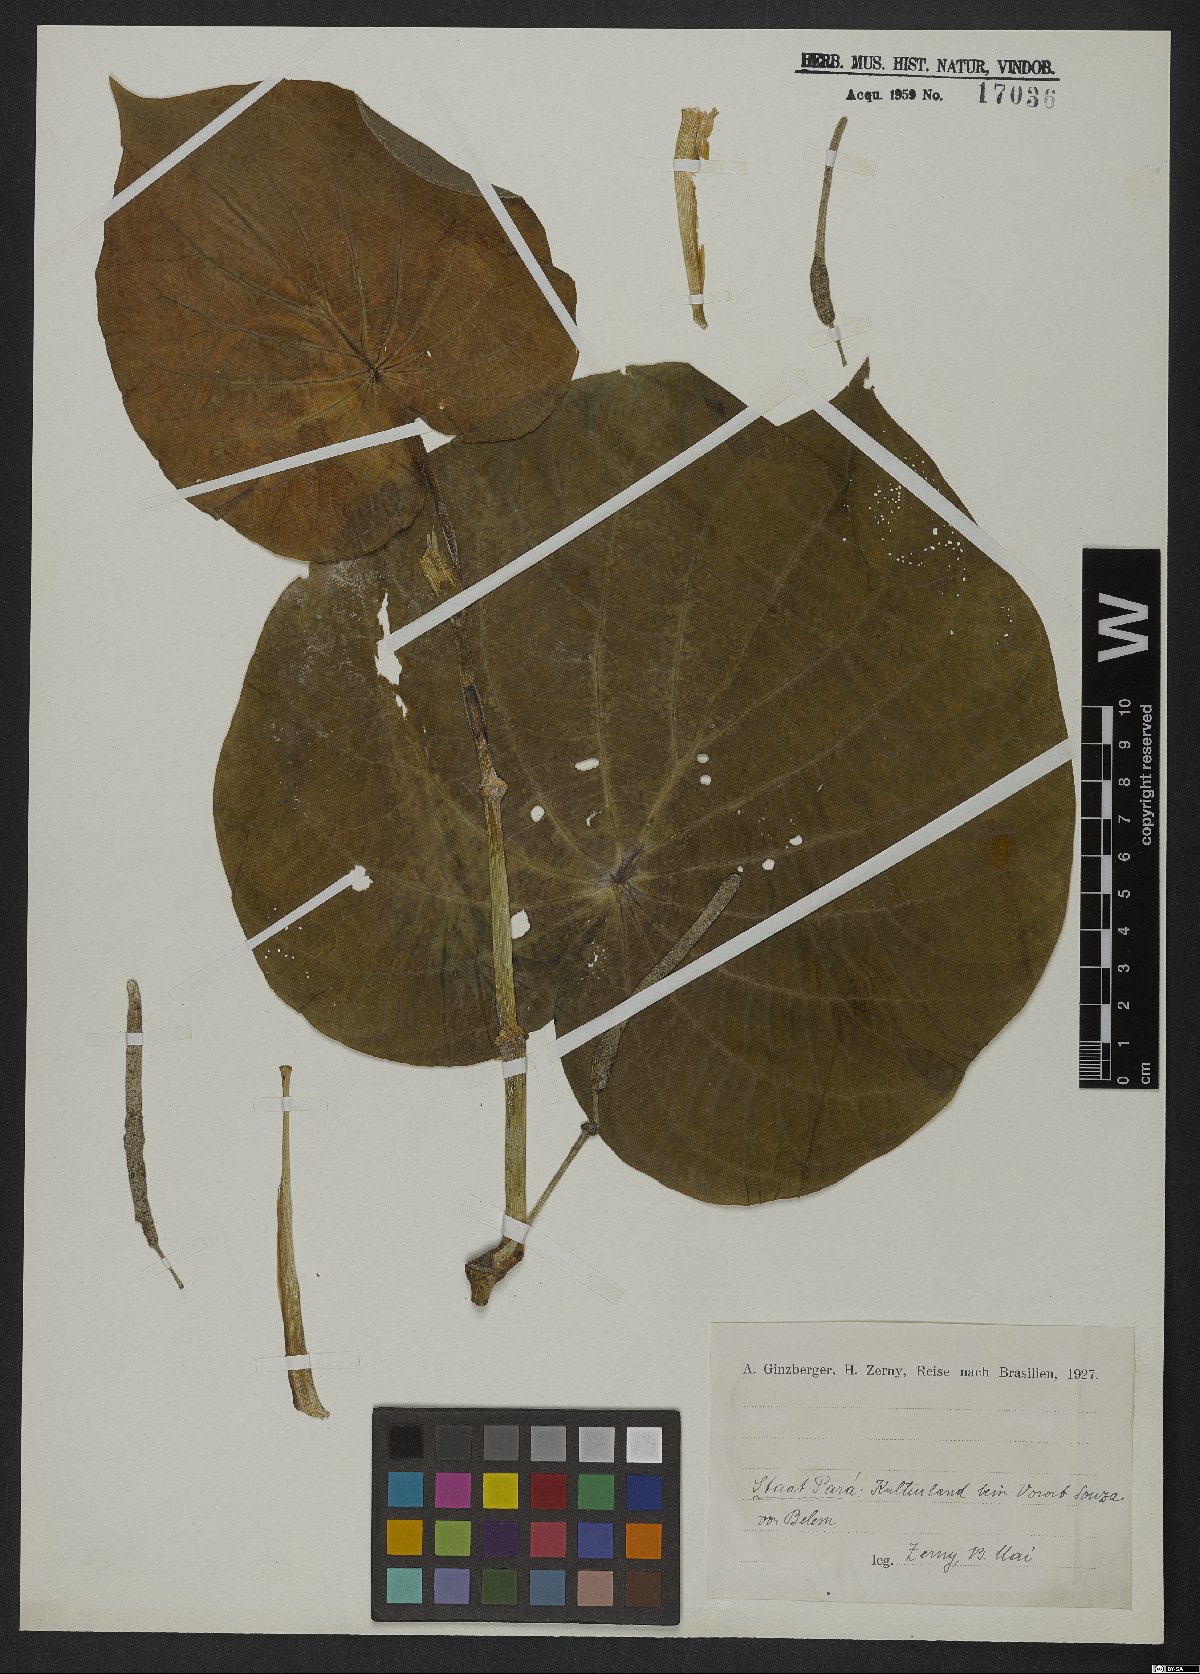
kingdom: Plantae
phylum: Tracheophyta
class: Magnoliopsida
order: Piperales
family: Piperaceae
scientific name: Piperaceae
